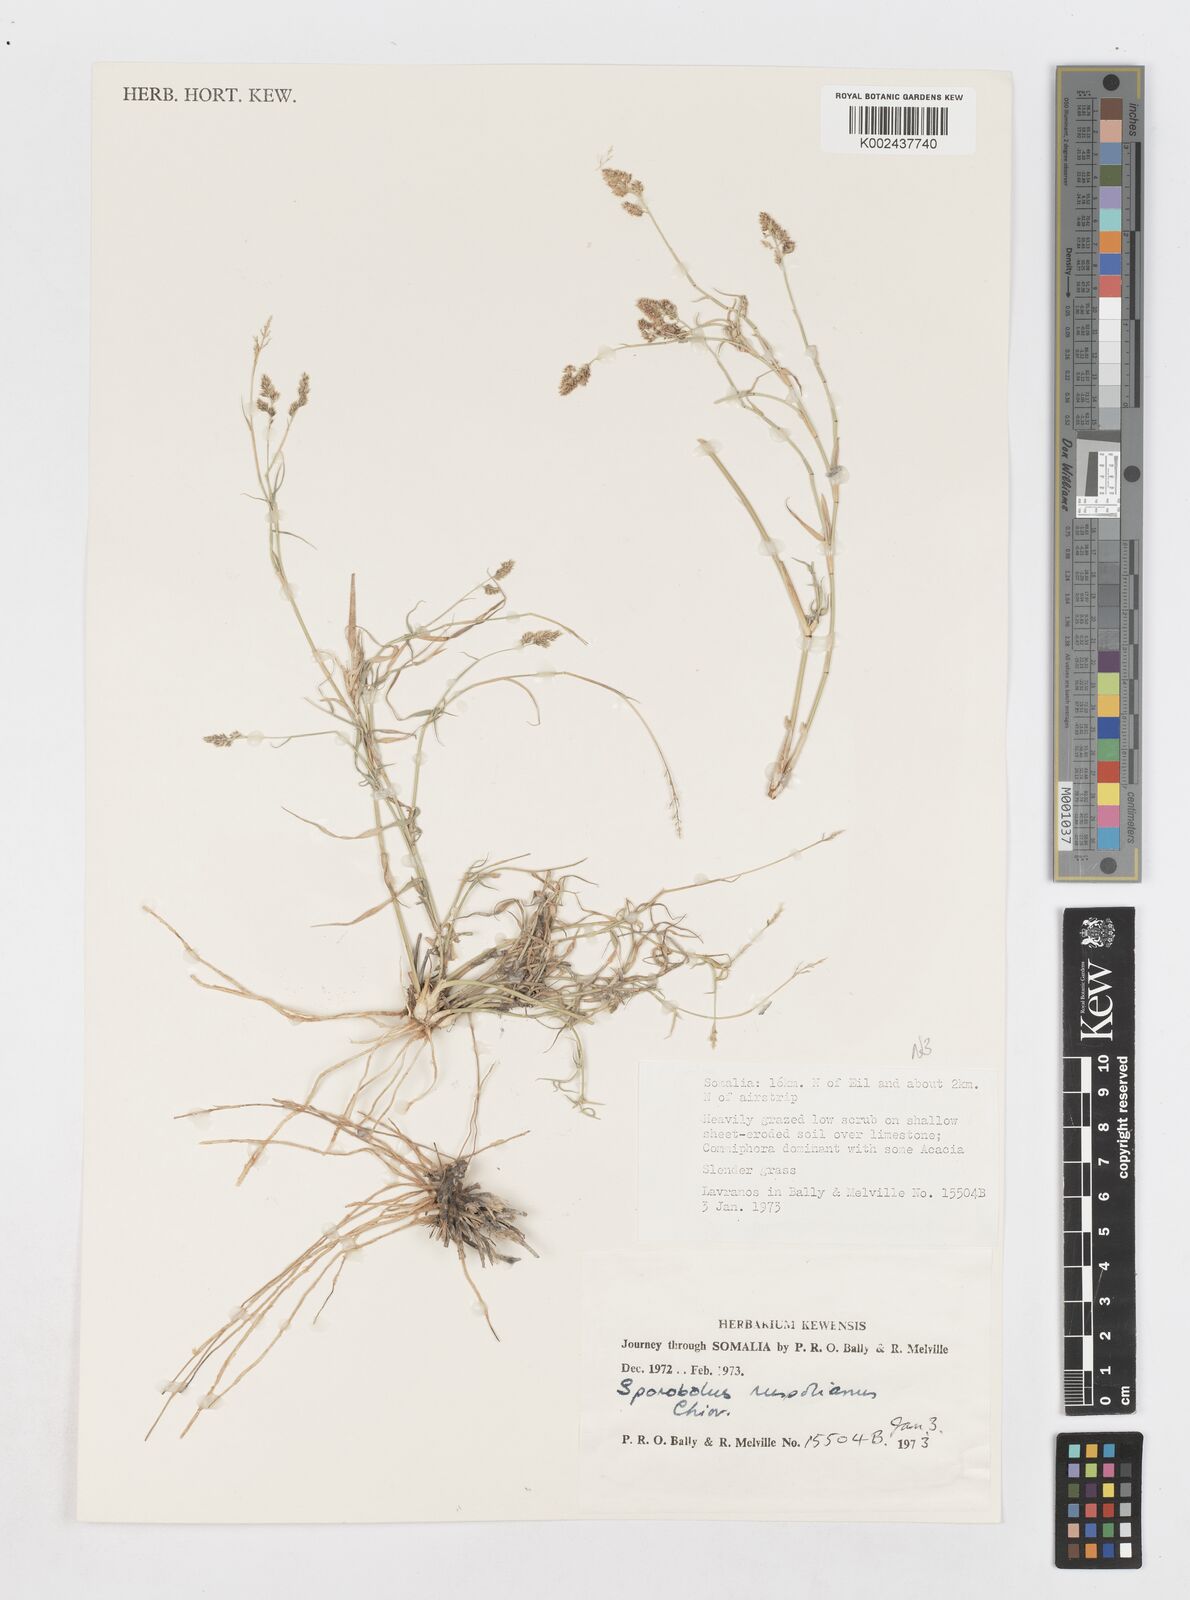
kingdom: Plantae
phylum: Tracheophyta
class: Liliopsida
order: Poales
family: Poaceae
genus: Sporobolus
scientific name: Sporobolus ruspolianus
